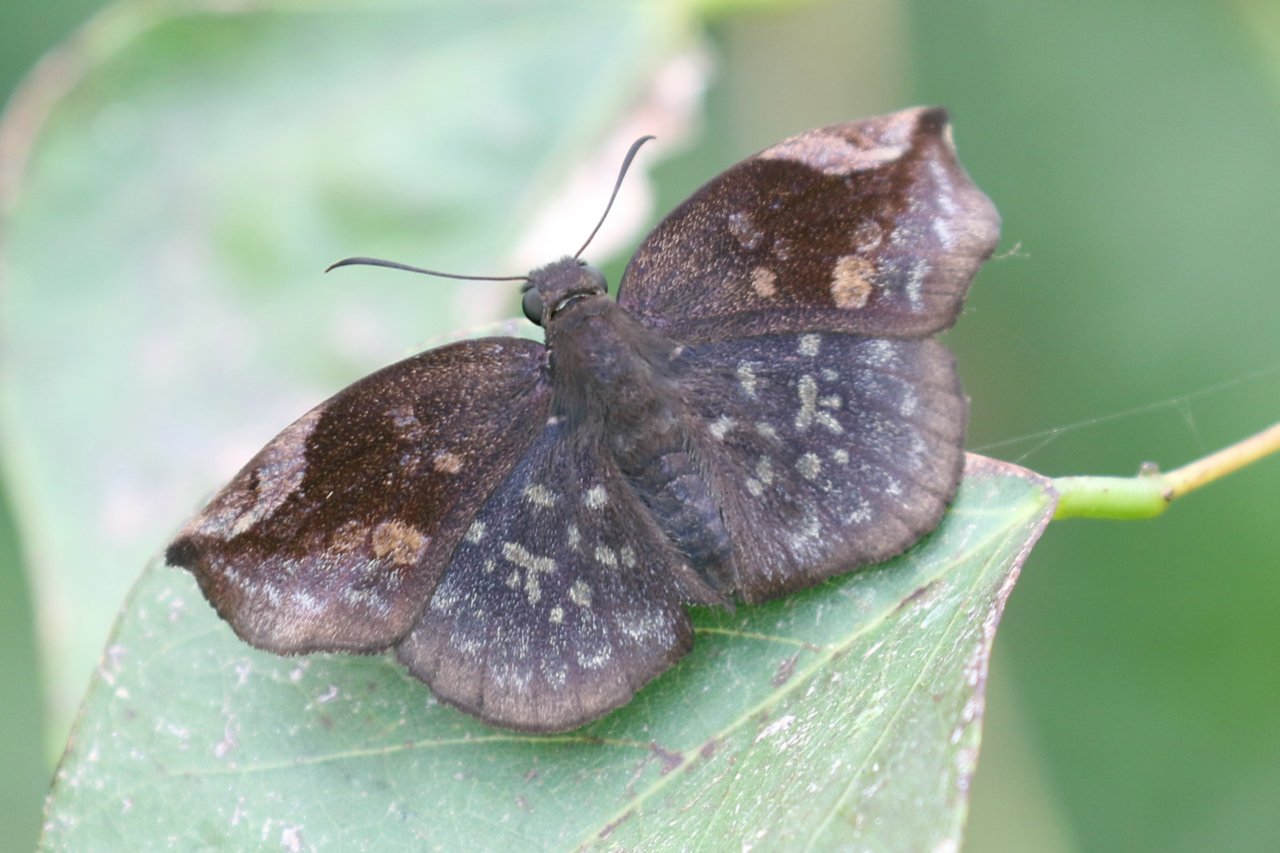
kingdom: Animalia
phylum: Arthropoda
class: Insecta
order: Lepidoptera
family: Hesperiidae
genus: Achlyodes
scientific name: Achlyodes thraso
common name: Sickle-winged Skipper
